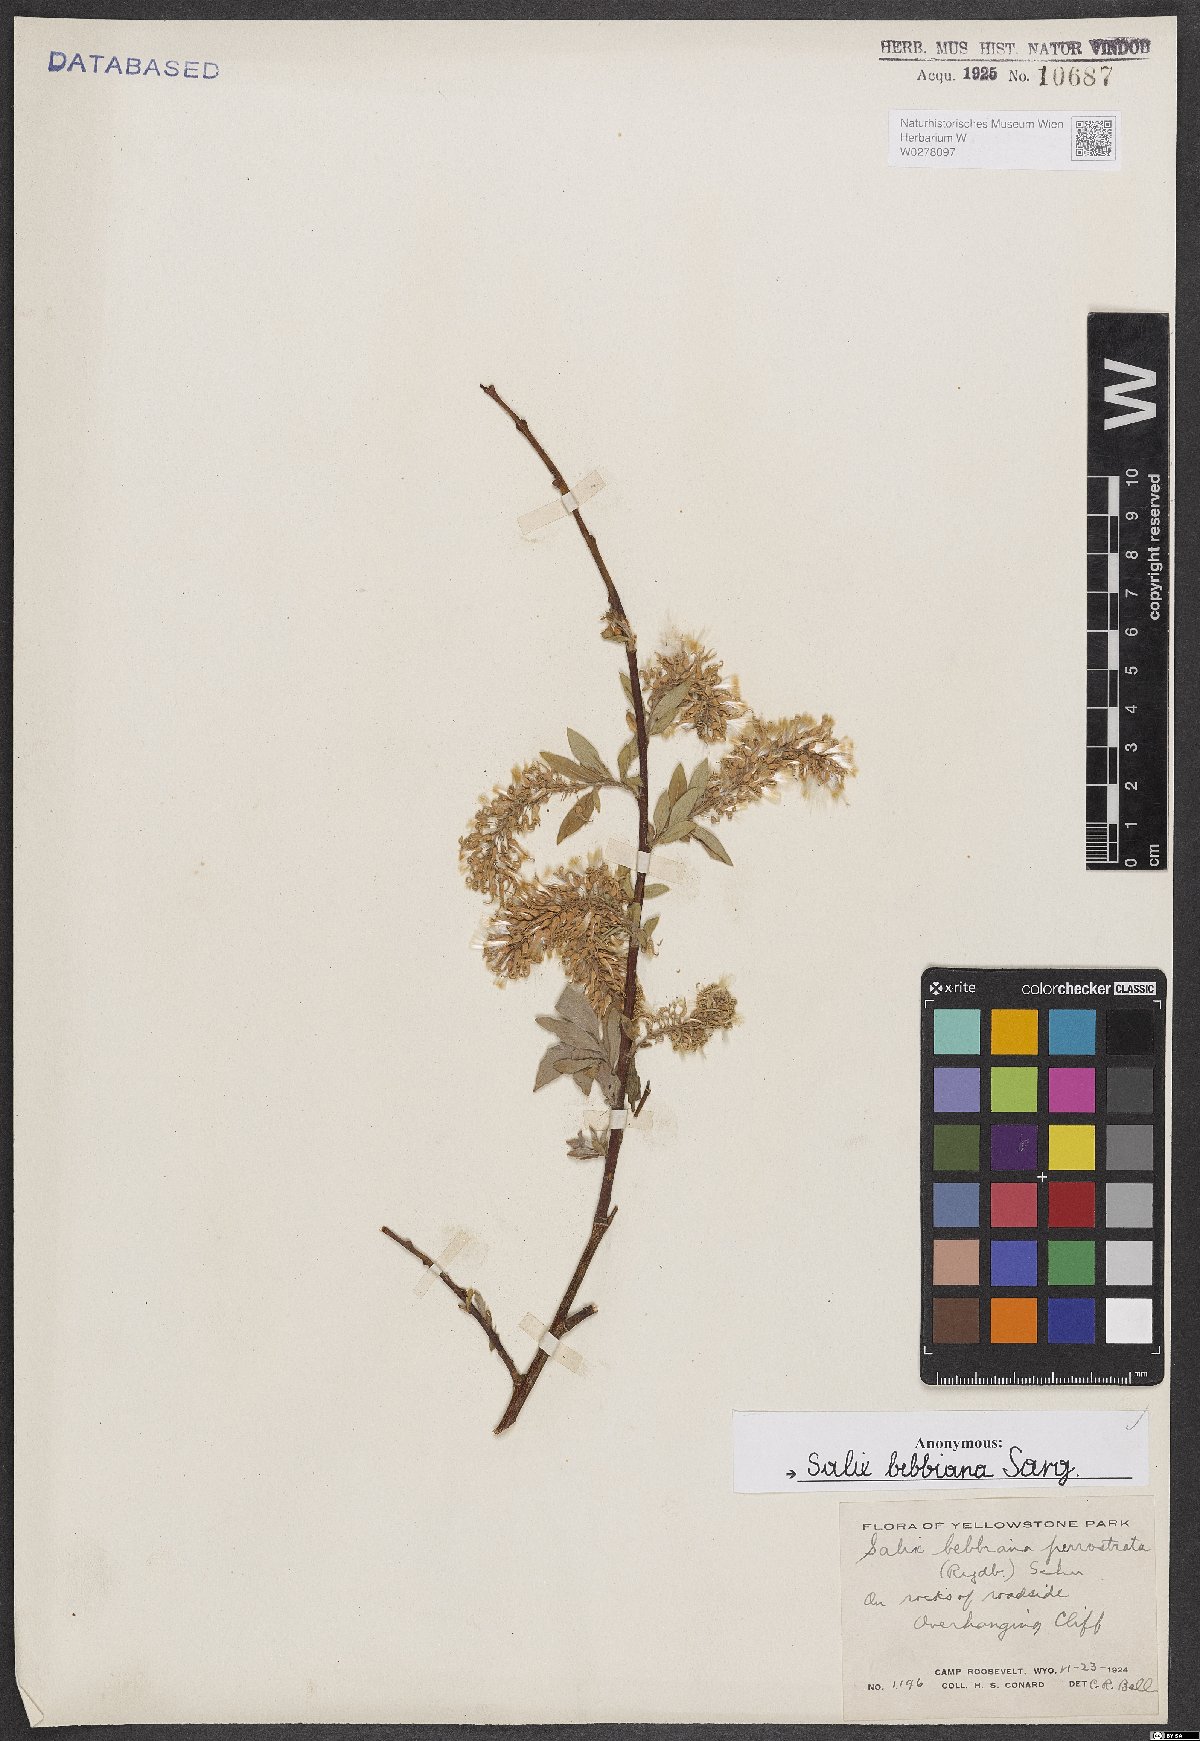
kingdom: Plantae
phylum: Tracheophyta
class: Magnoliopsida
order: Malpighiales
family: Salicaceae
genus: Salix
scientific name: Salix bebbiana
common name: Bebb's willow
